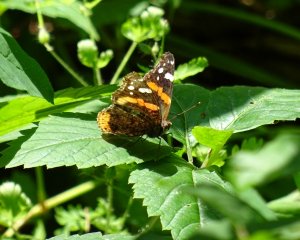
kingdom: Animalia
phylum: Arthropoda
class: Insecta
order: Lepidoptera
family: Nymphalidae
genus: Vanessa
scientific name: Vanessa atalanta
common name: Red Admiral
